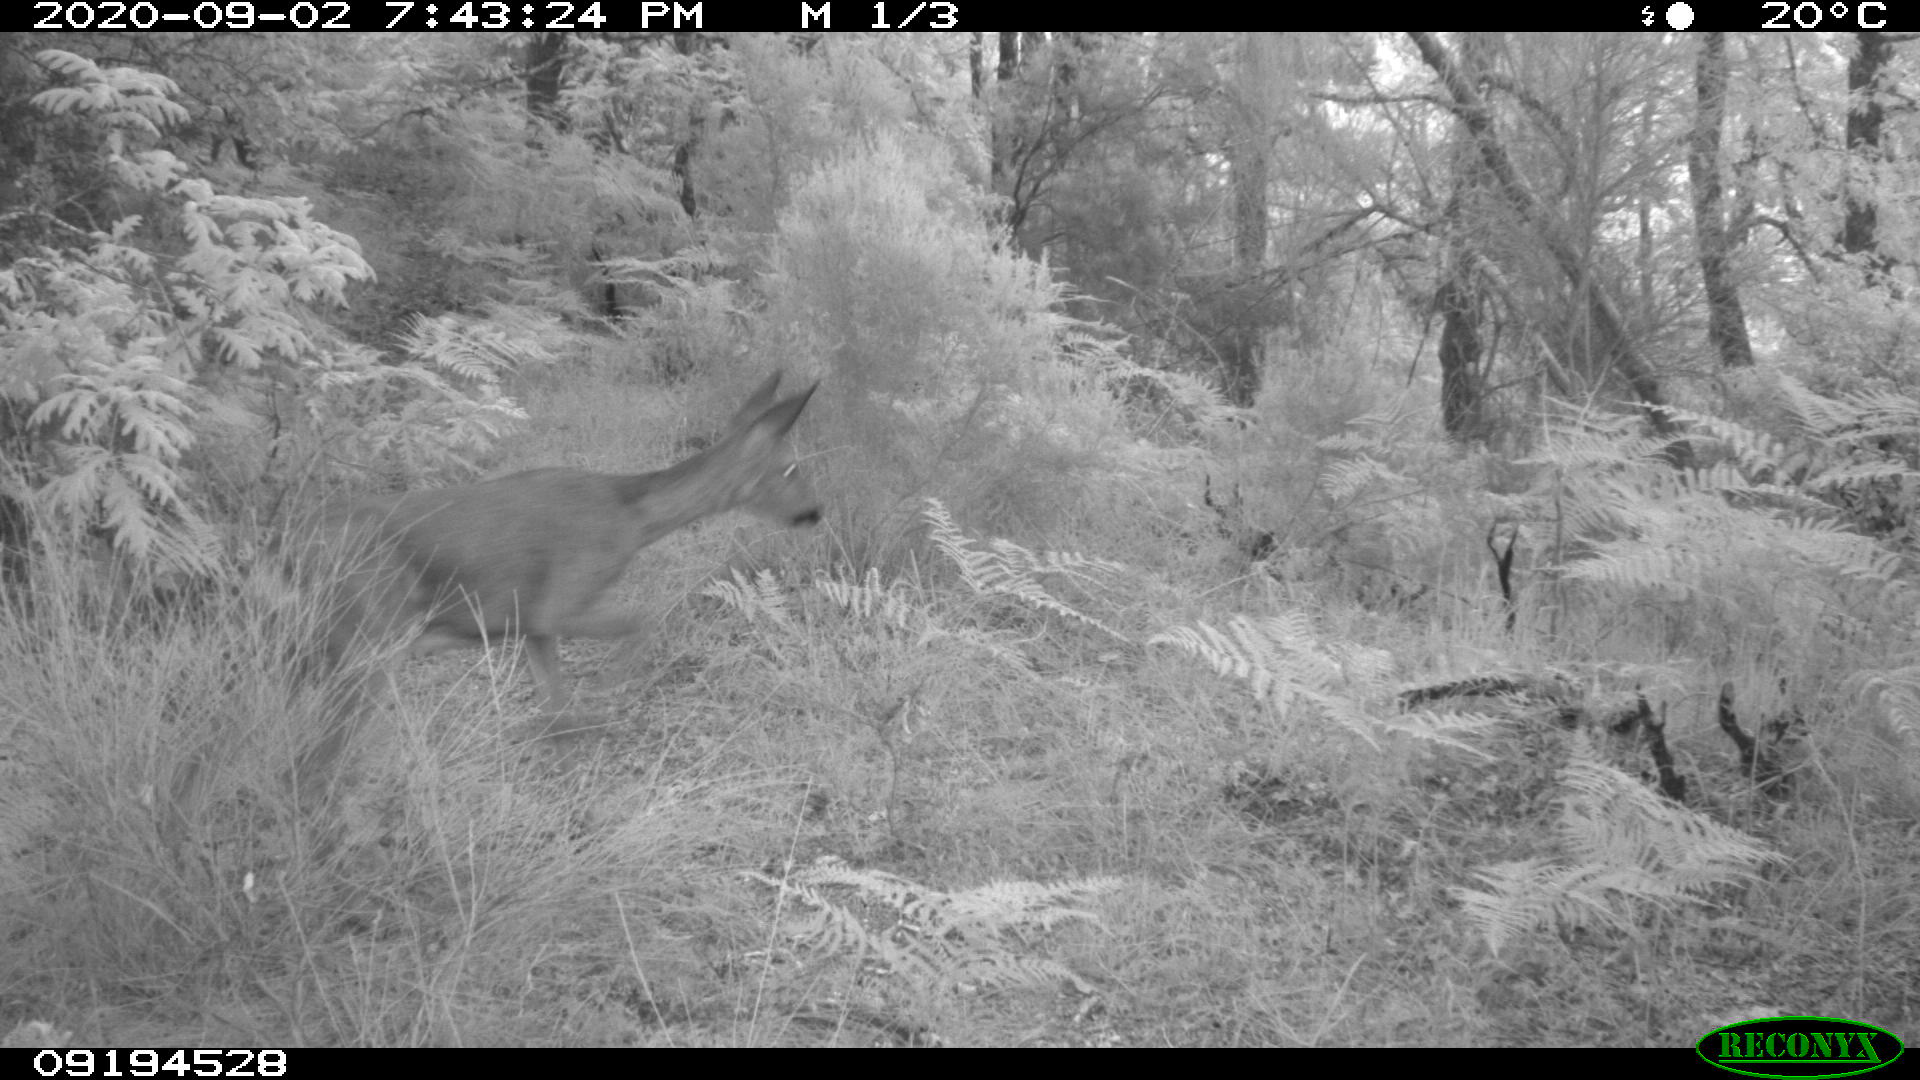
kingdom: Animalia
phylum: Chordata
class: Mammalia
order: Artiodactyla
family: Cervidae
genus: Capreolus
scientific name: Capreolus capreolus
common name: Western roe deer
